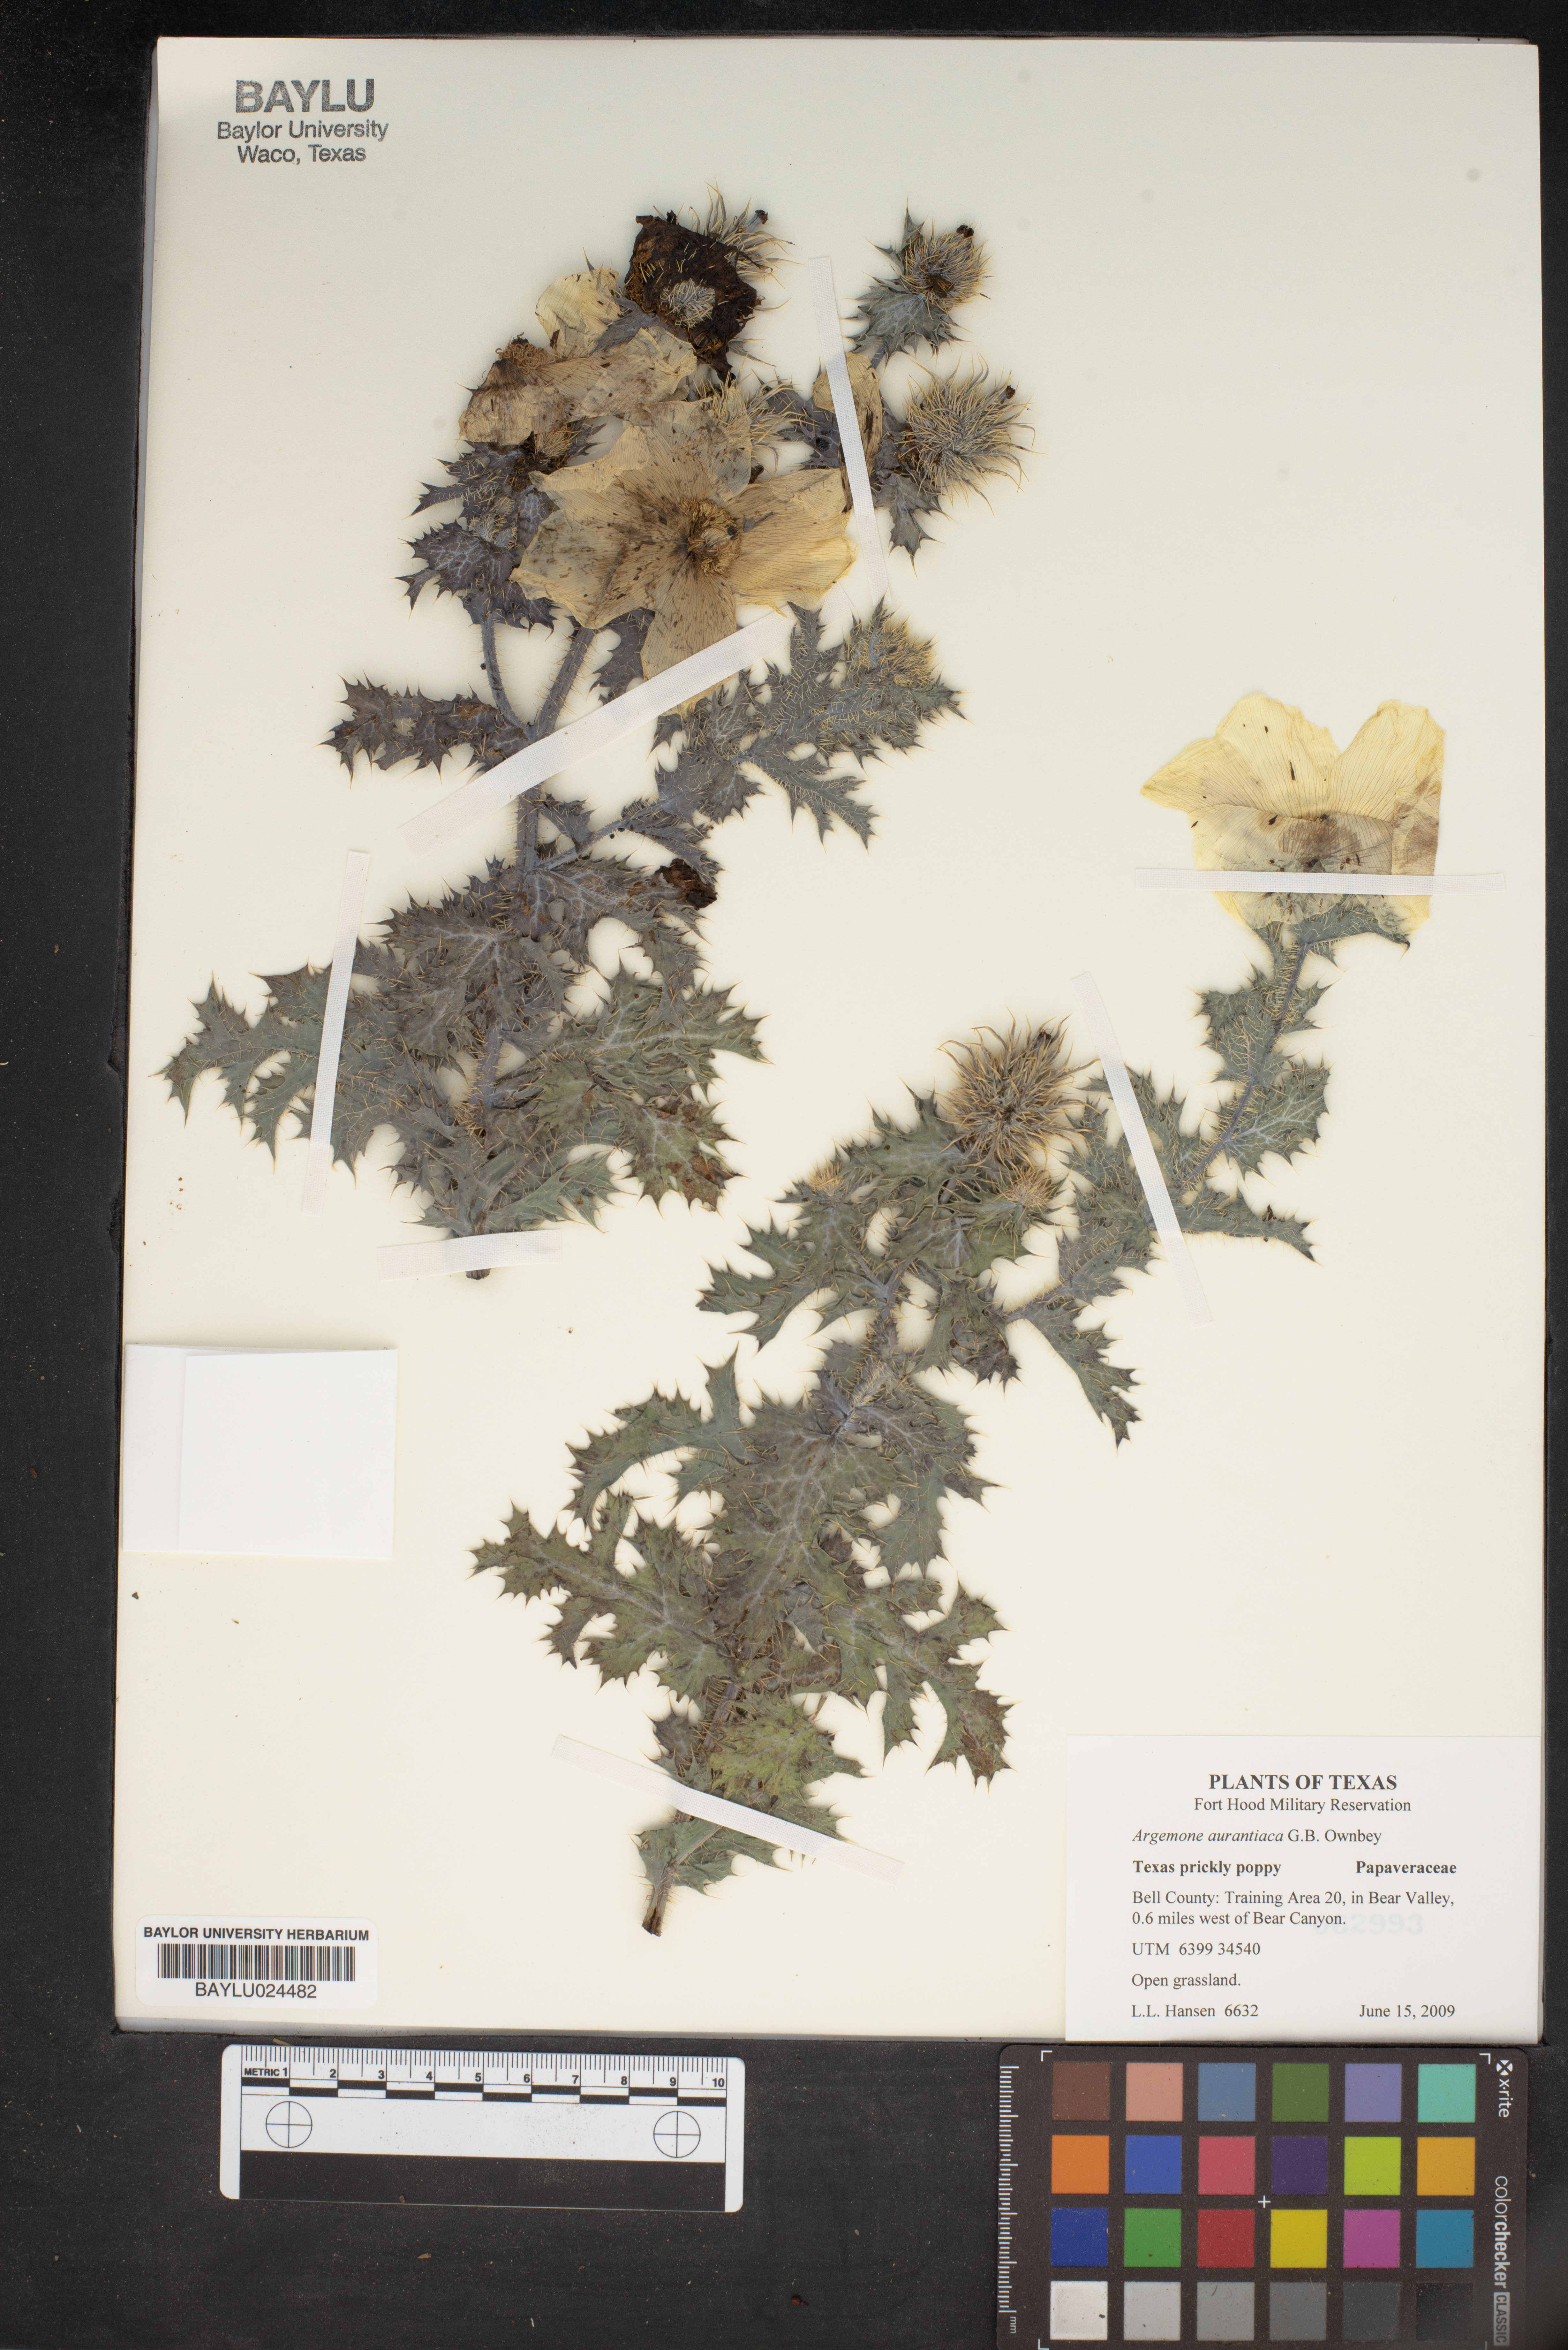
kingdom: Plantae
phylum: Tracheophyta
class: Magnoliopsida
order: Ranunculales
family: Papaveraceae
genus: Argemone
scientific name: Argemone aurantiaca
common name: Texas prickly-poppy
